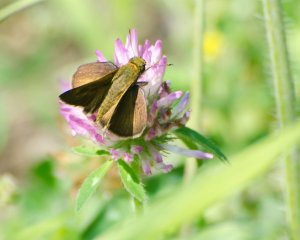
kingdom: Animalia
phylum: Arthropoda
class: Insecta
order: Lepidoptera
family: Hesperiidae
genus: Euphyes
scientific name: Euphyes vestris
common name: Dun Skipper
